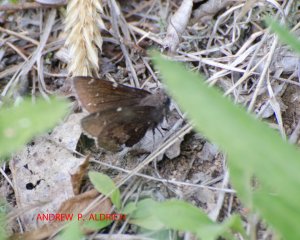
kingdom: Animalia
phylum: Arthropoda
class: Insecta
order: Lepidoptera
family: Hesperiidae
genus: Autochton
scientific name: Autochton
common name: Northern Cloudywing
